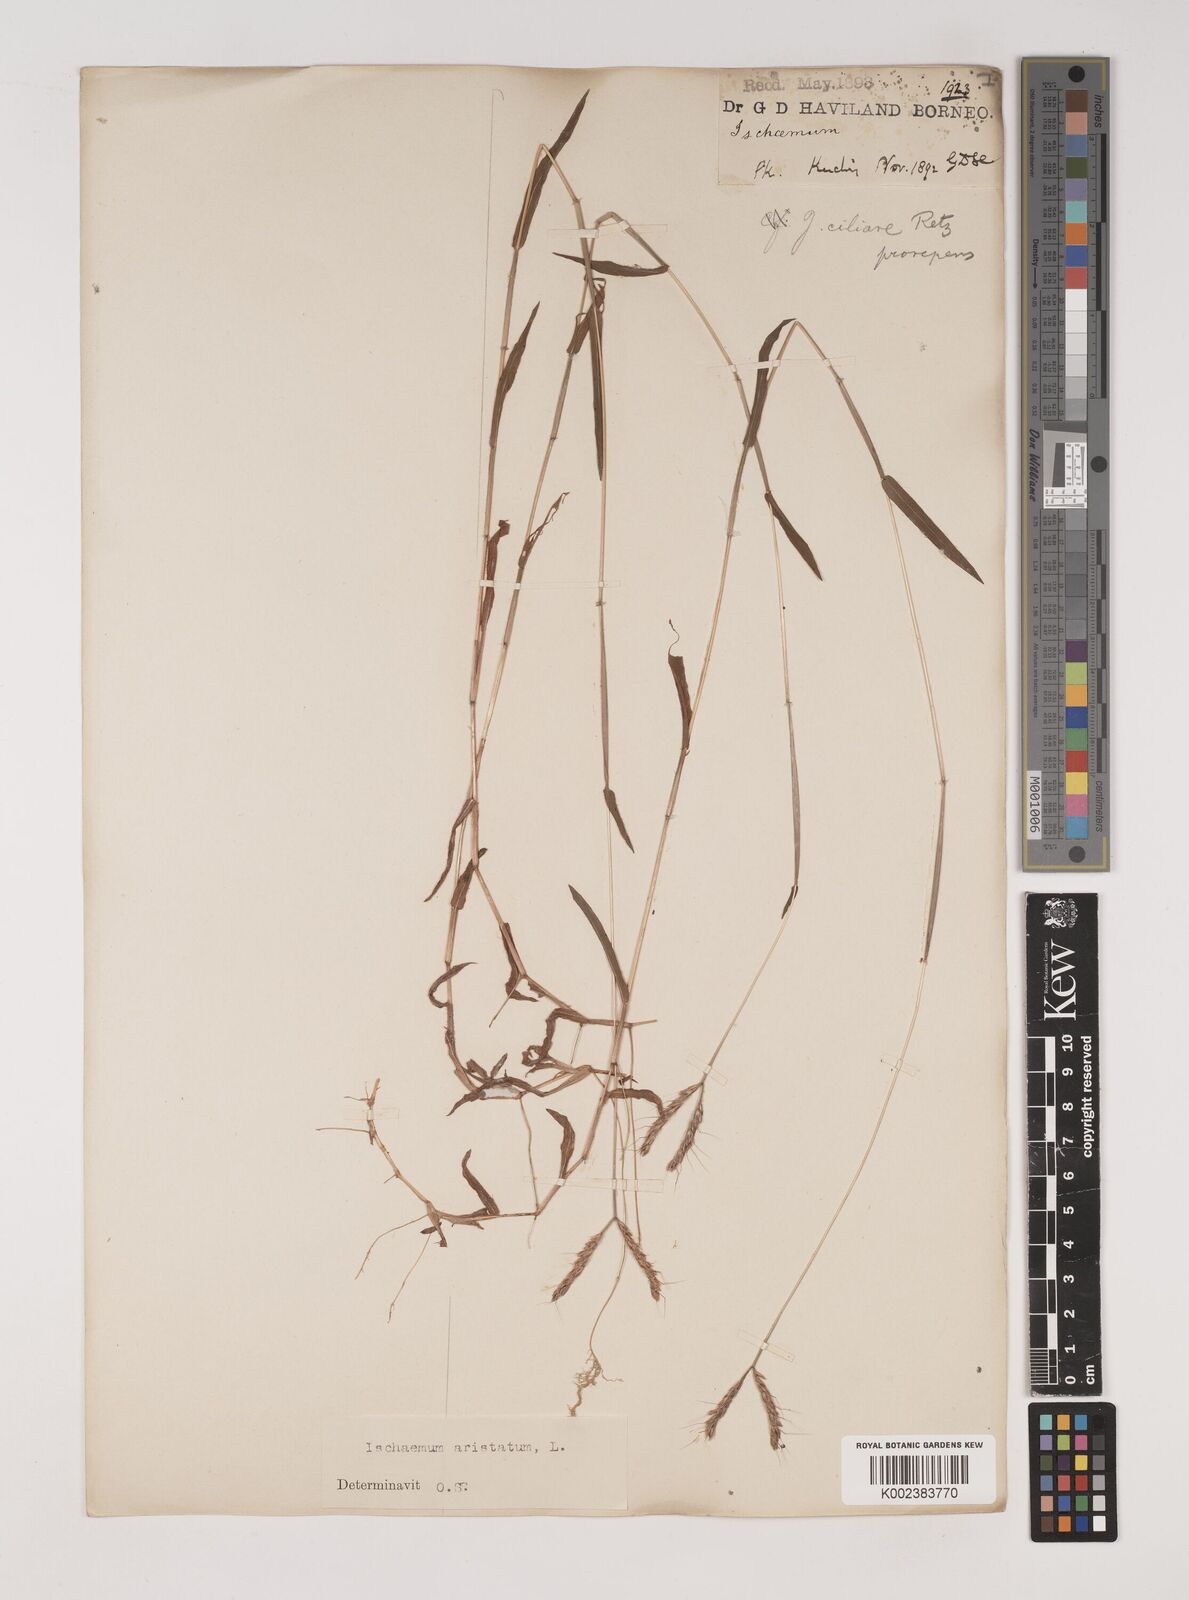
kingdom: Plantae
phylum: Tracheophyta
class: Liliopsida
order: Poales
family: Poaceae
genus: Polytrias
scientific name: Polytrias indica
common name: Indian murainagrass
